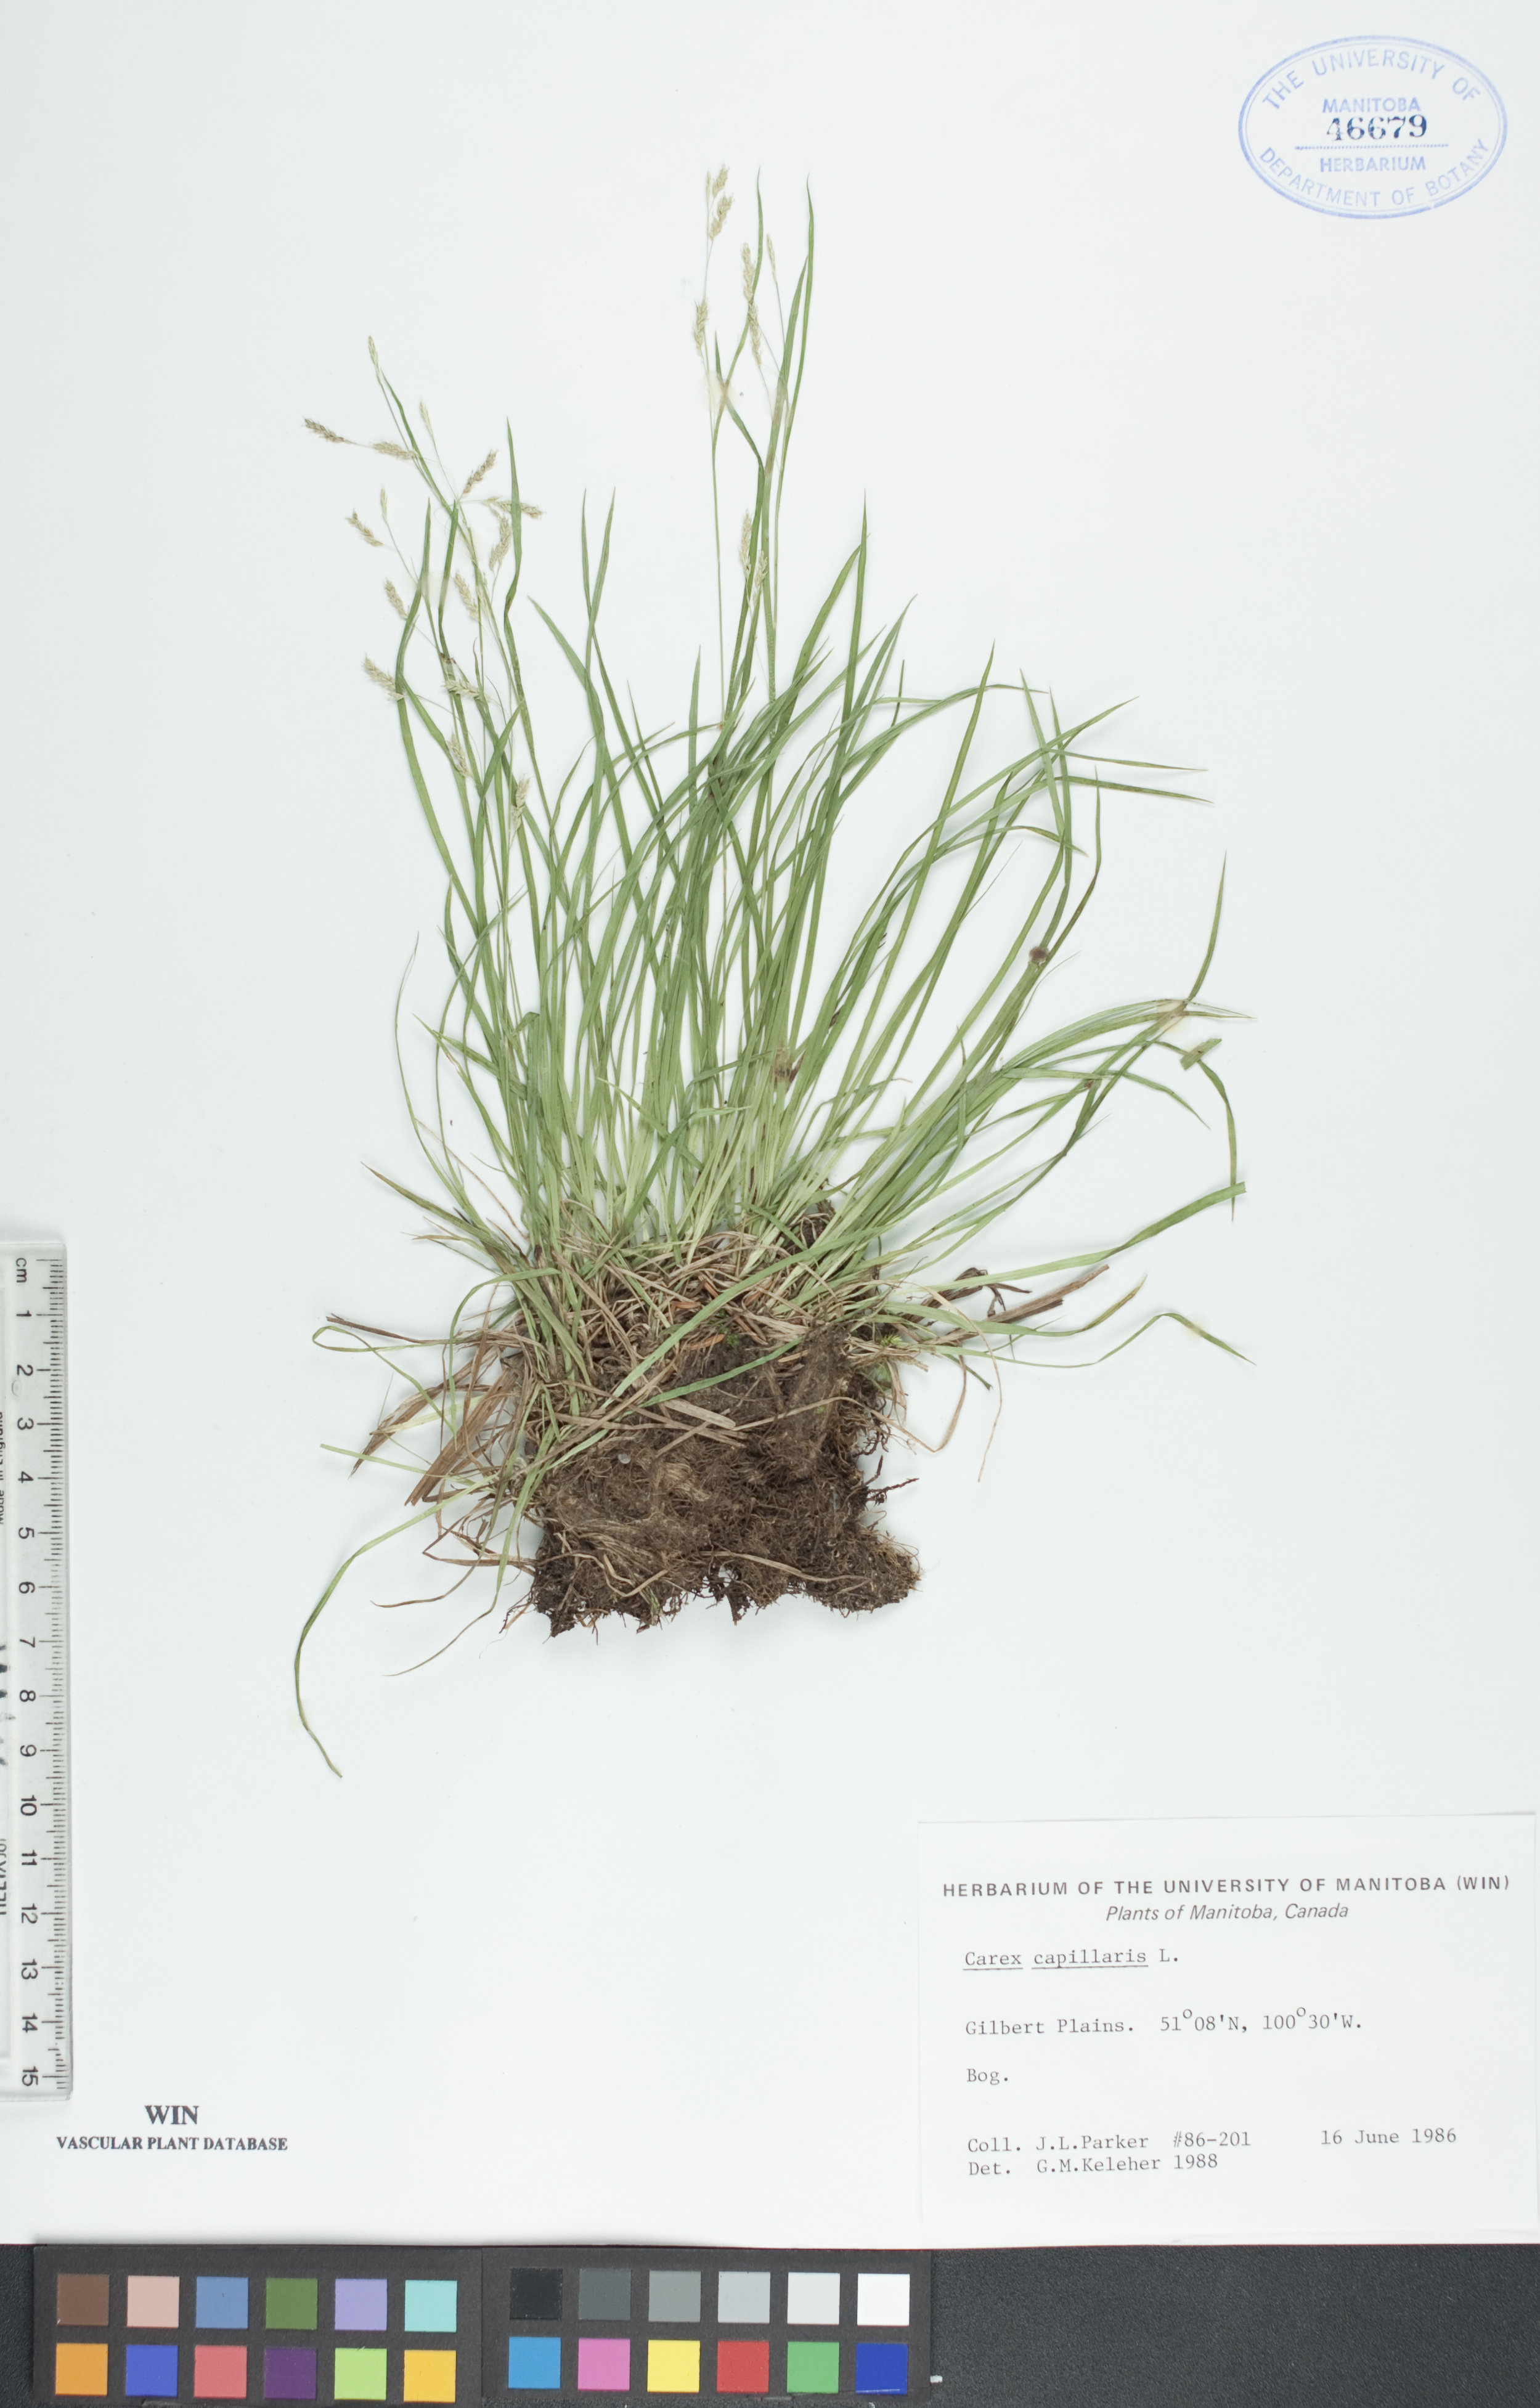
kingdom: Plantae
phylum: Tracheophyta
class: Liliopsida
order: Poales
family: Cyperaceae
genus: Carex
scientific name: Carex capillaris
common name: Hair sedge
